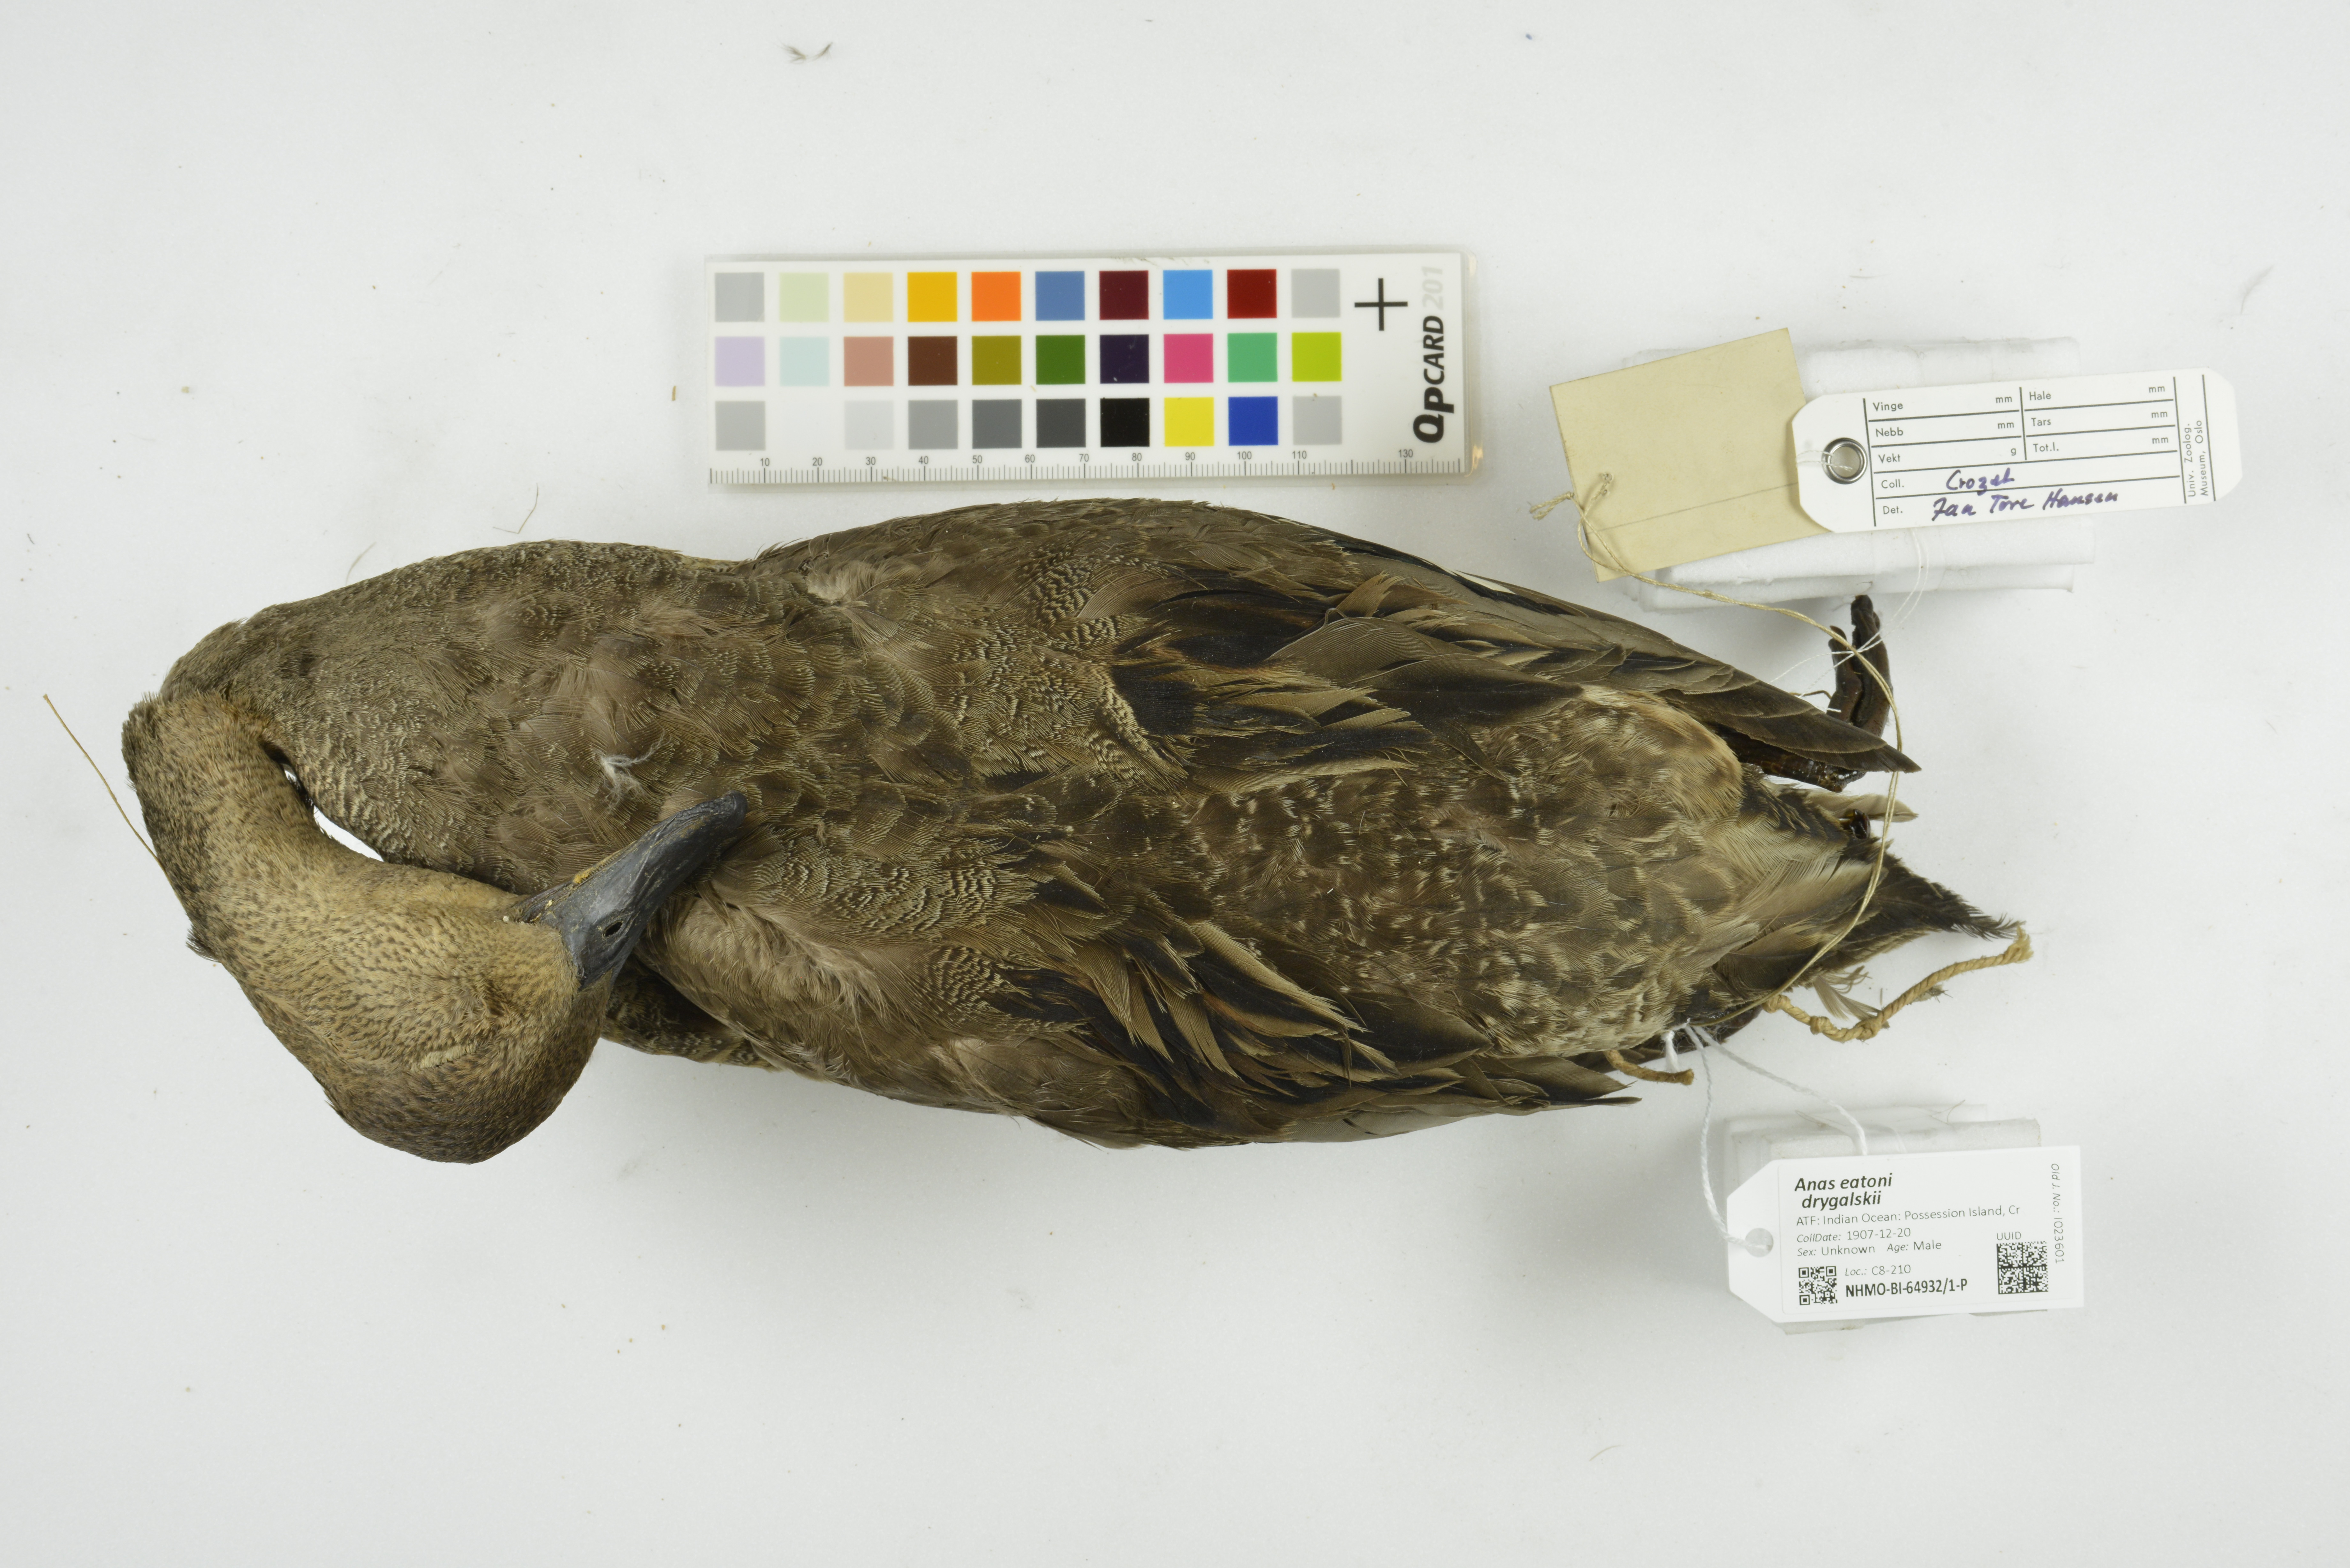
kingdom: Animalia
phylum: Chordata
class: Aves
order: Anseriformes
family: Anatidae
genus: Anas
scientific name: Anas eatoni
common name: Eaton's pintail
